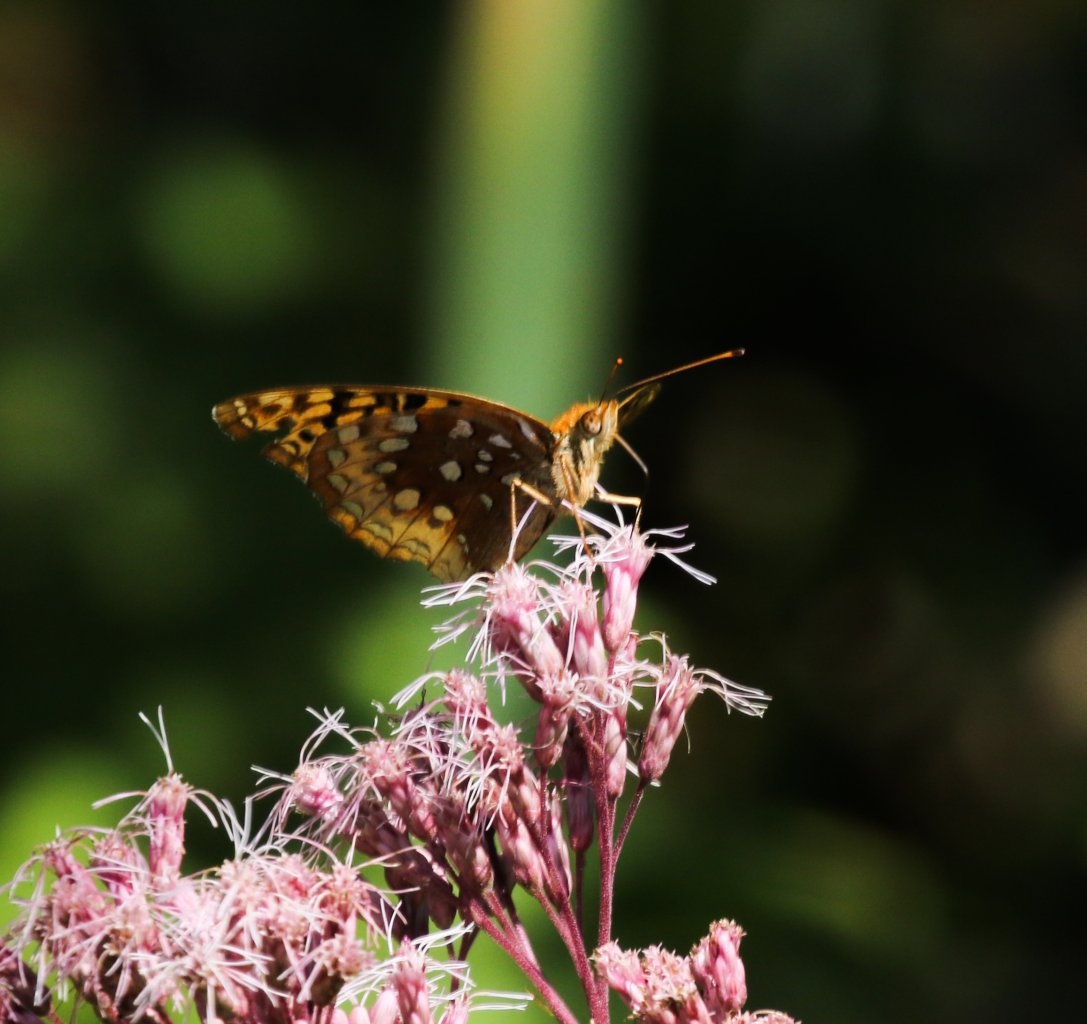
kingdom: Animalia
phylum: Arthropoda
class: Insecta
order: Lepidoptera
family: Nymphalidae
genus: Speyeria
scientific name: Speyeria aphrodite
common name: Aphrodite Fritillary
